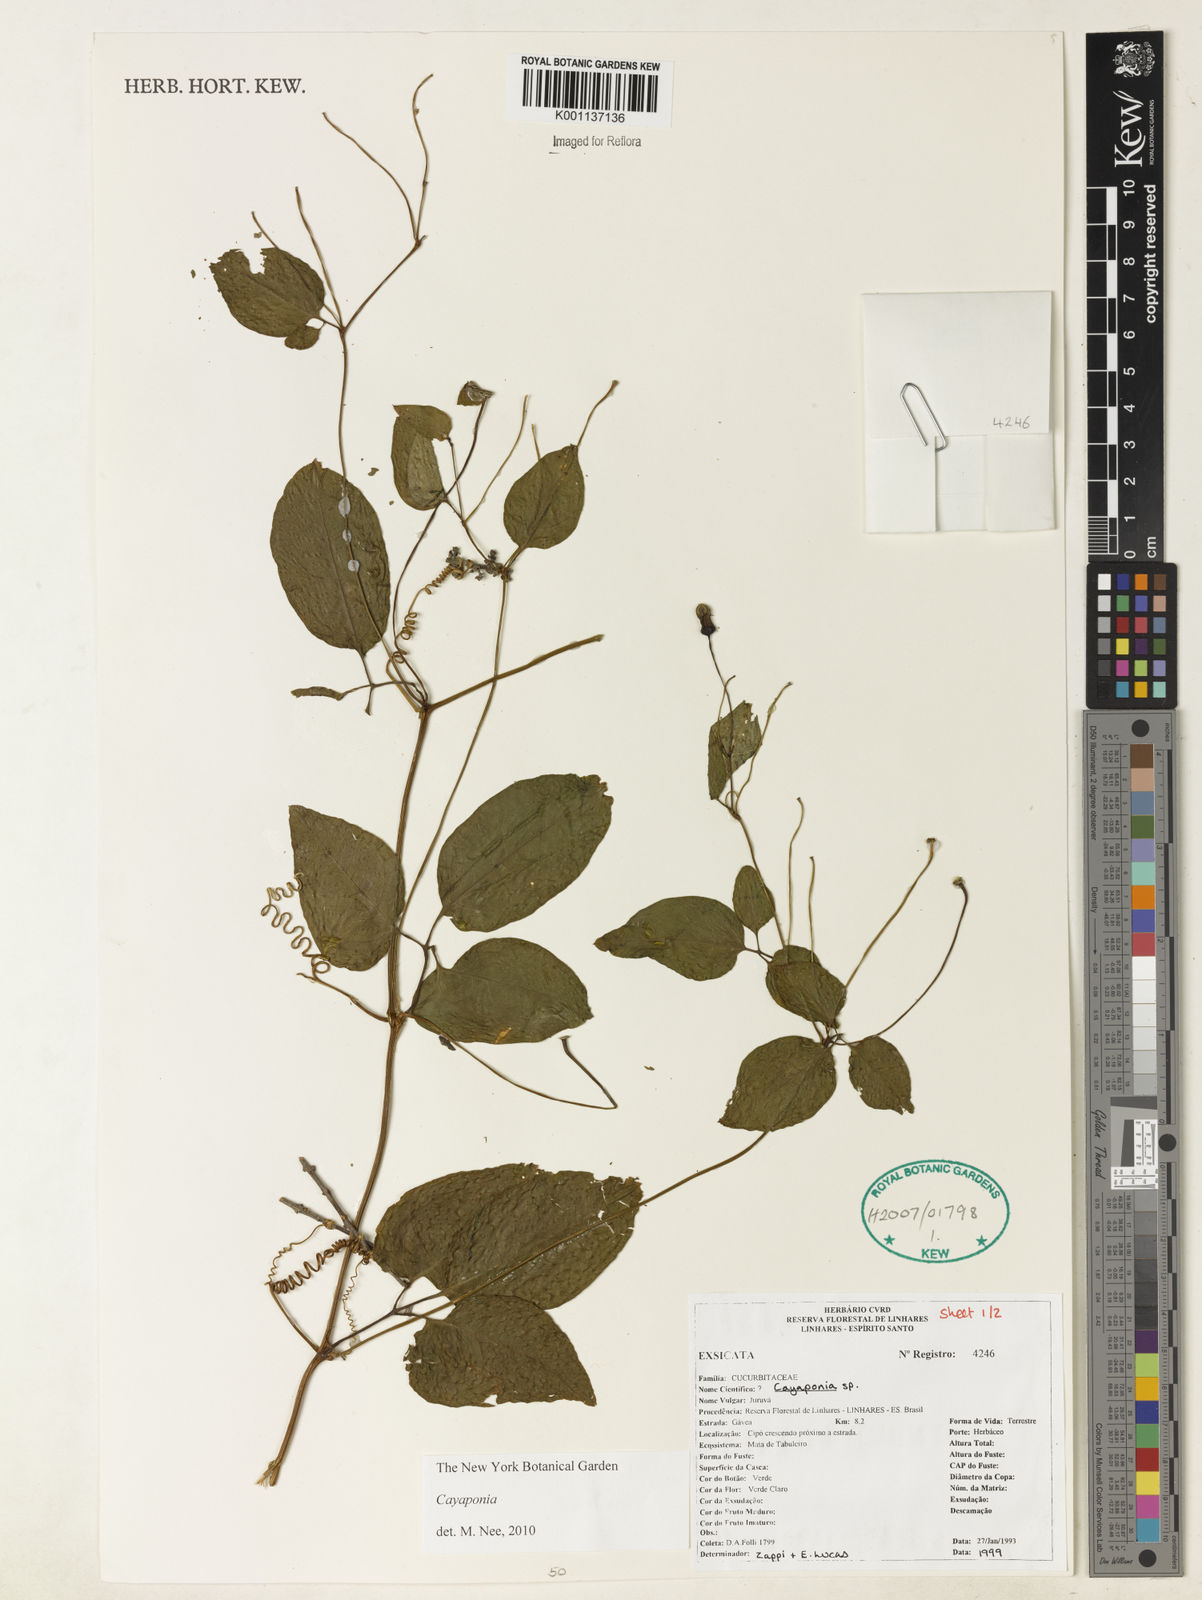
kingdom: Plantae
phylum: Tracheophyta
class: Magnoliopsida
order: Cucurbitales
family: Cucurbitaceae
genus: Cayaponia
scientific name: Cayaponia
